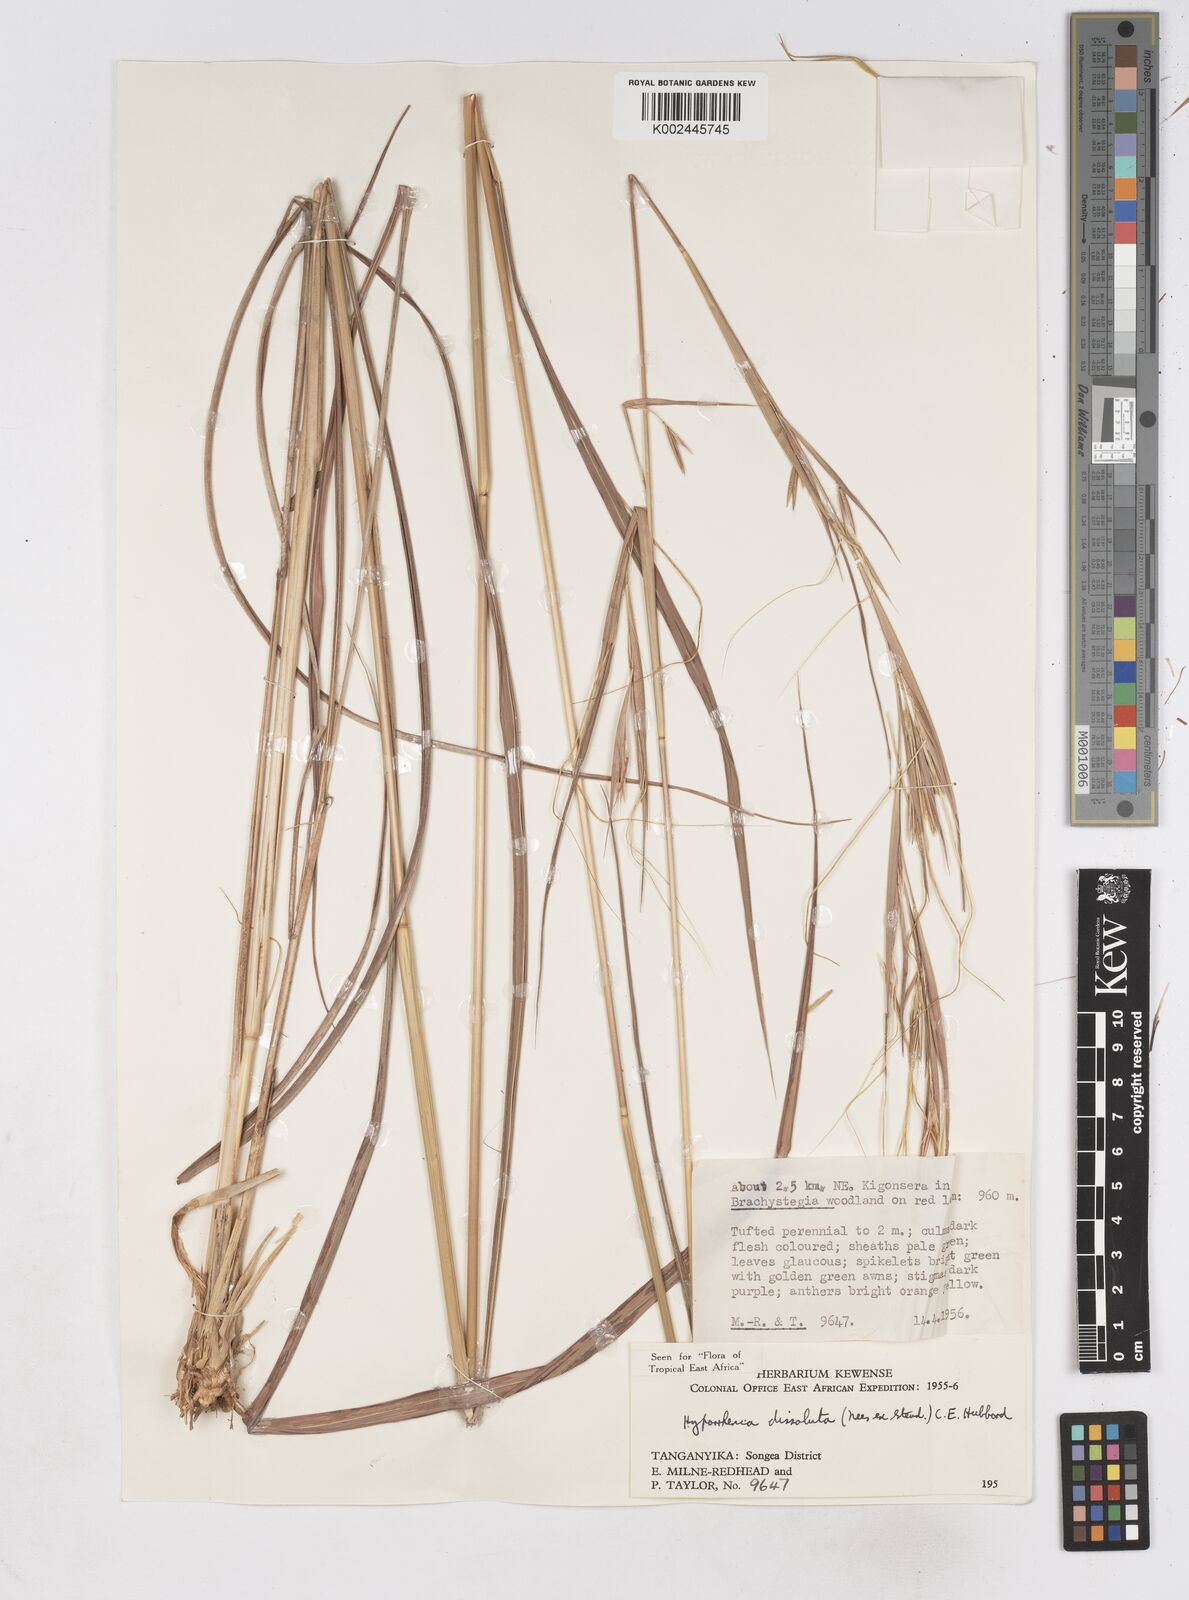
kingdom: Plantae
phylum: Tracheophyta
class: Liliopsida
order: Poales
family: Poaceae
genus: Hyperthelia
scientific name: Hyperthelia dissoluta
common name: Yellow thatching grass
